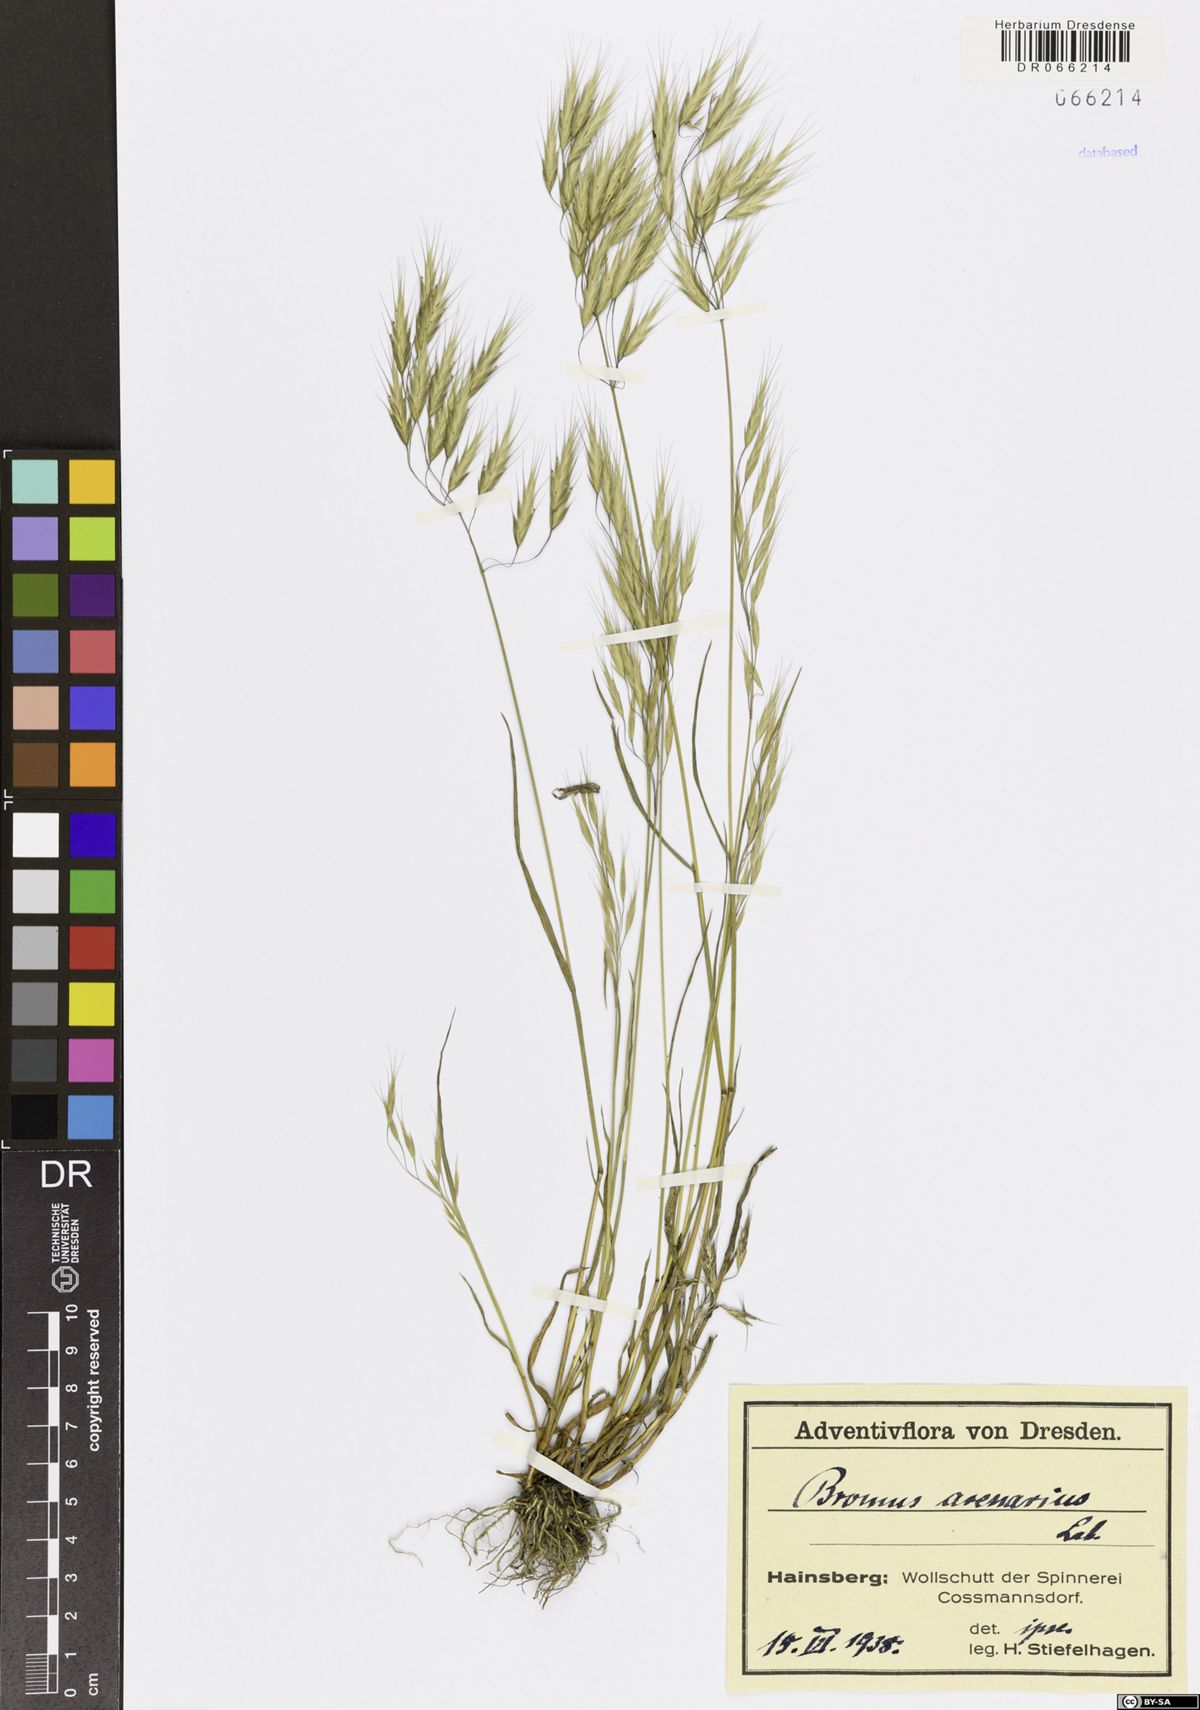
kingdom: Plantae
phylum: Tracheophyta
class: Liliopsida
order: Poales
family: Poaceae
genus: Bromus
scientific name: Bromus arenarius
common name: Australian brome
